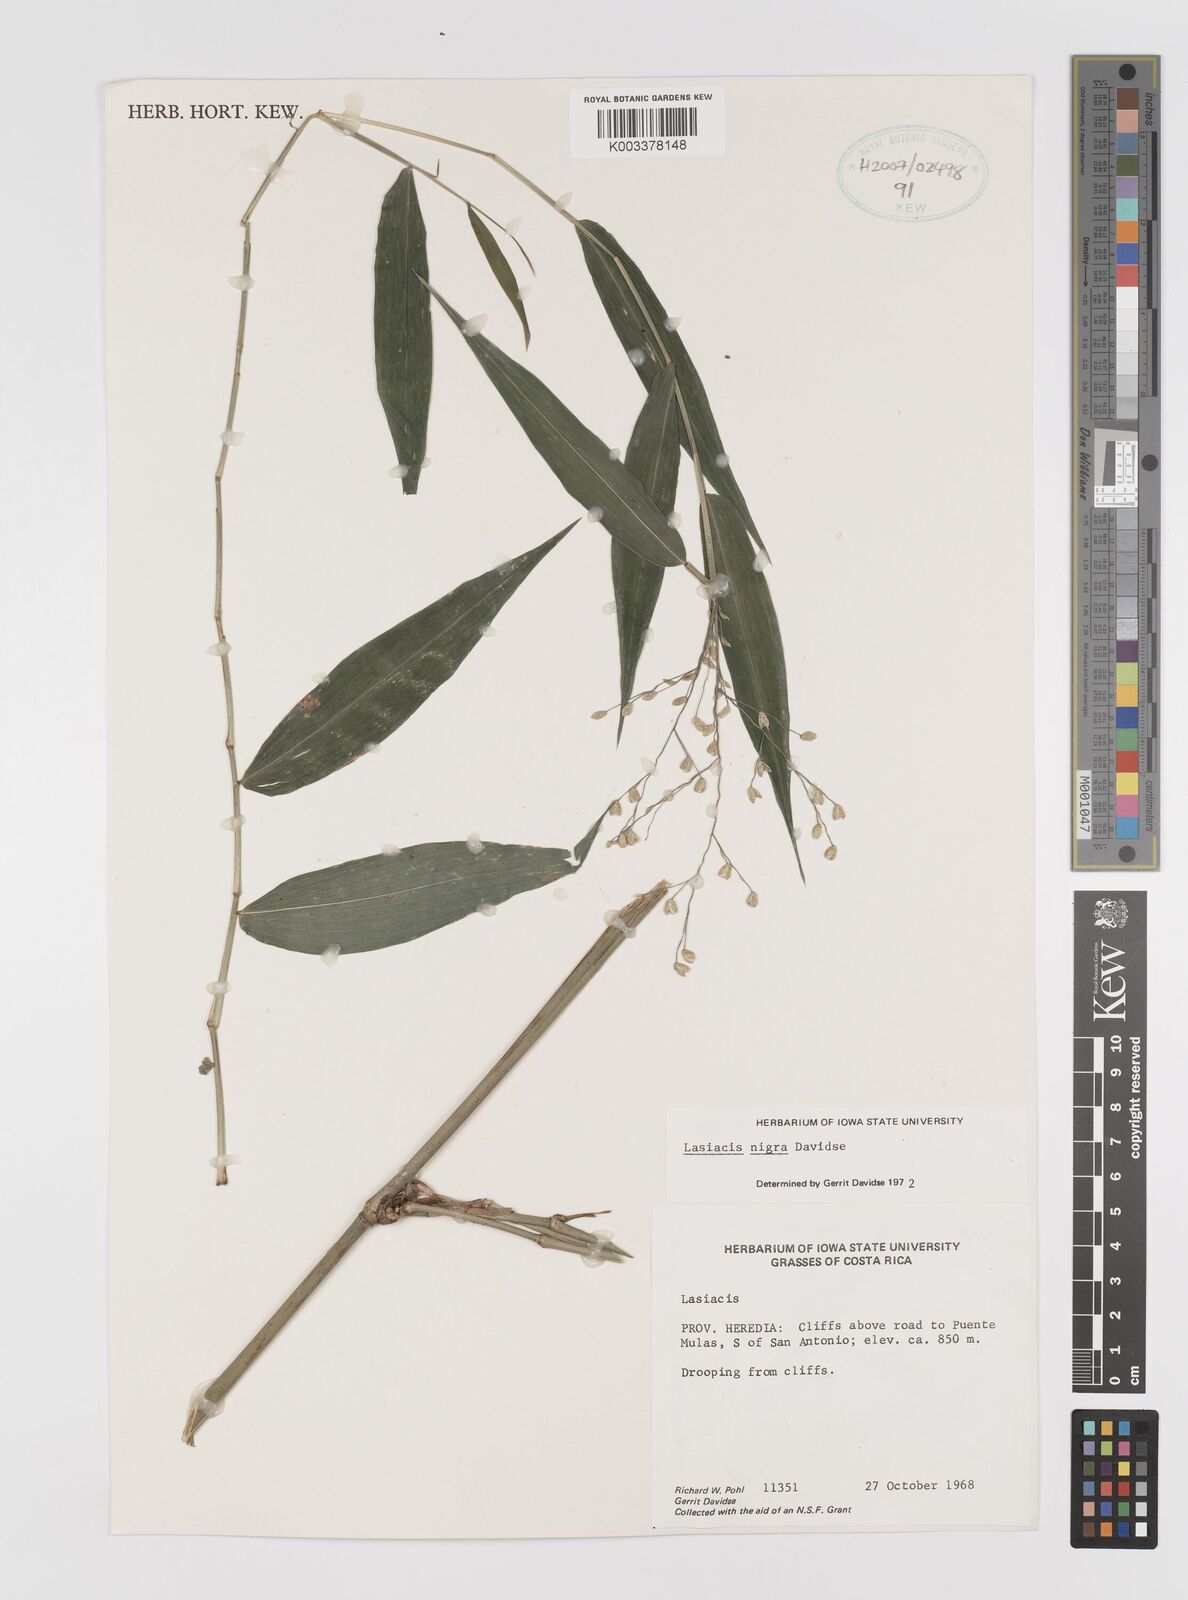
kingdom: Plantae
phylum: Tracheophyta
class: Liliopsida
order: Poales
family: Poaceae
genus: Lasiacis
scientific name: Lasiacis nigra
